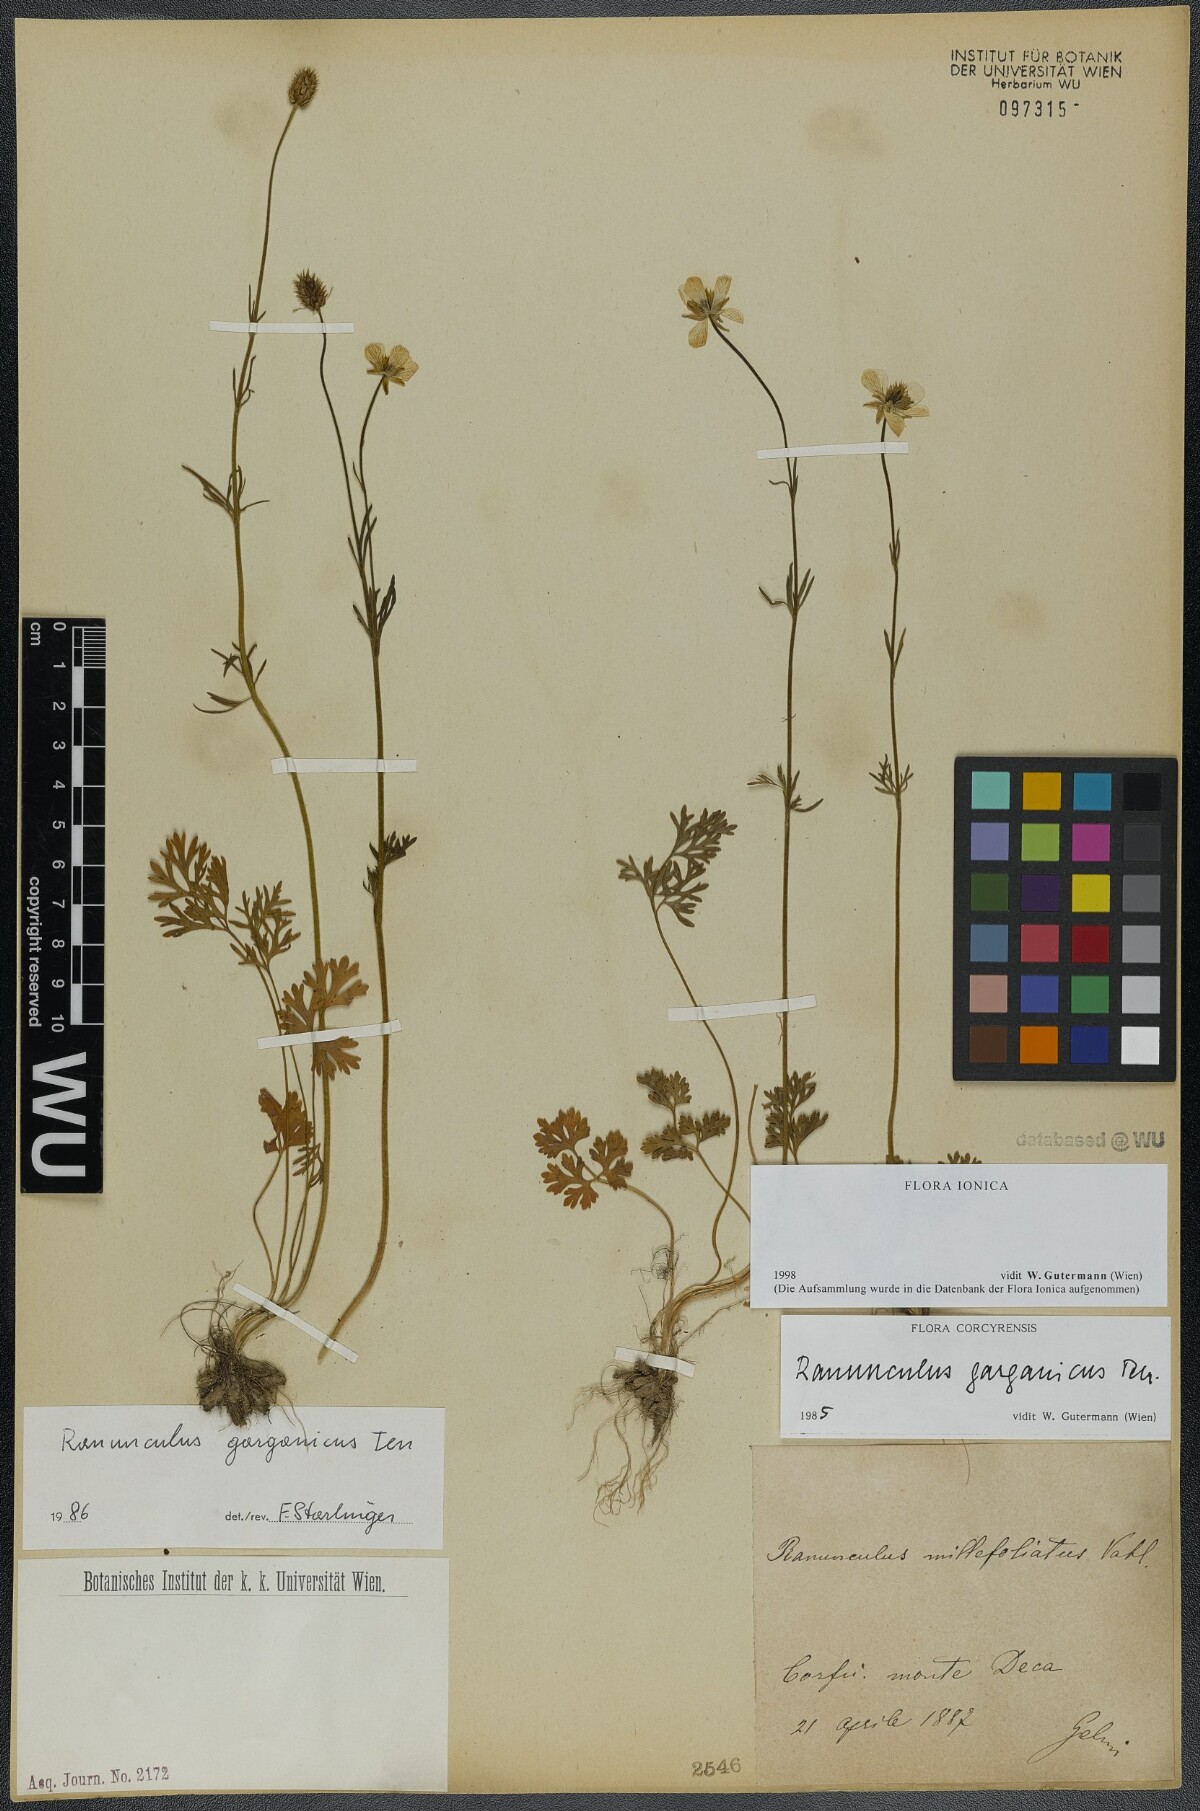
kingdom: Plantae
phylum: Tracheophyta
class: Magnoliopsida
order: Ranunculales
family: Ranunculaceae
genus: Ranunculus
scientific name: Ranunculus garganicus
